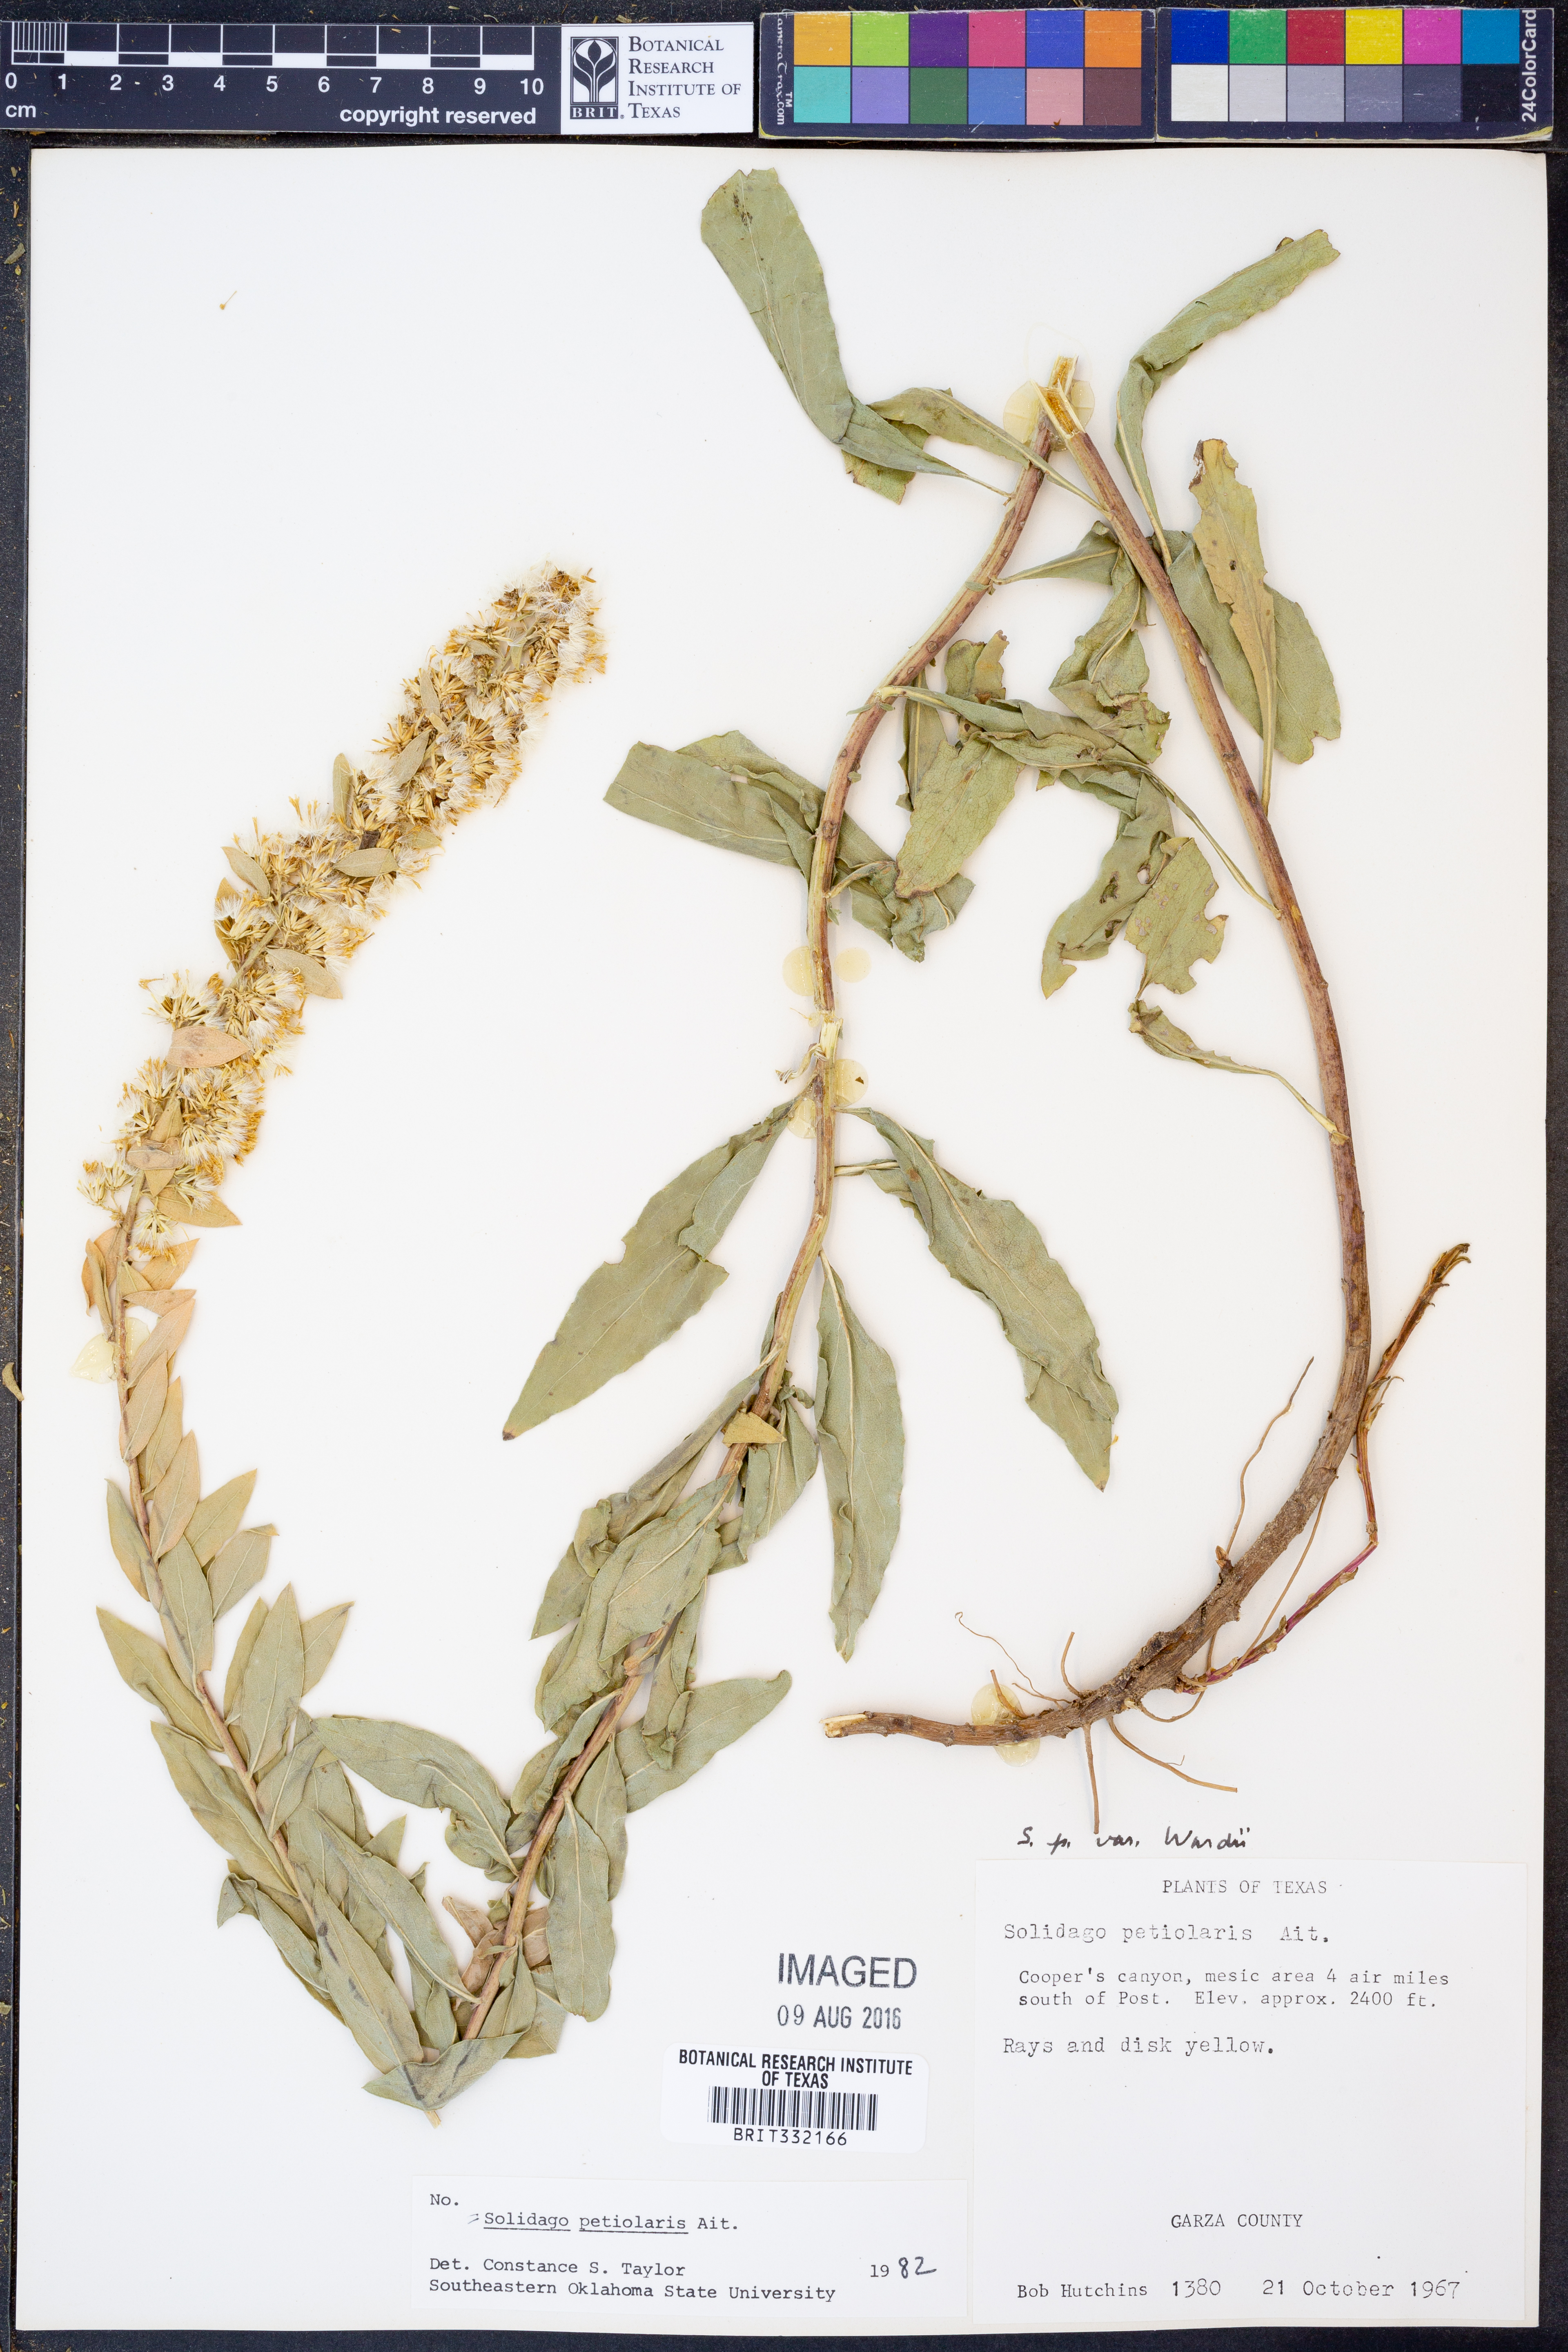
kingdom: Plantae
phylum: Tracheophyta
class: Magnoliopsida
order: Asterales
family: Asteraceae
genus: Solidago
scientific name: Solidago petiolaris
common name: Downy ragged goldenrod
